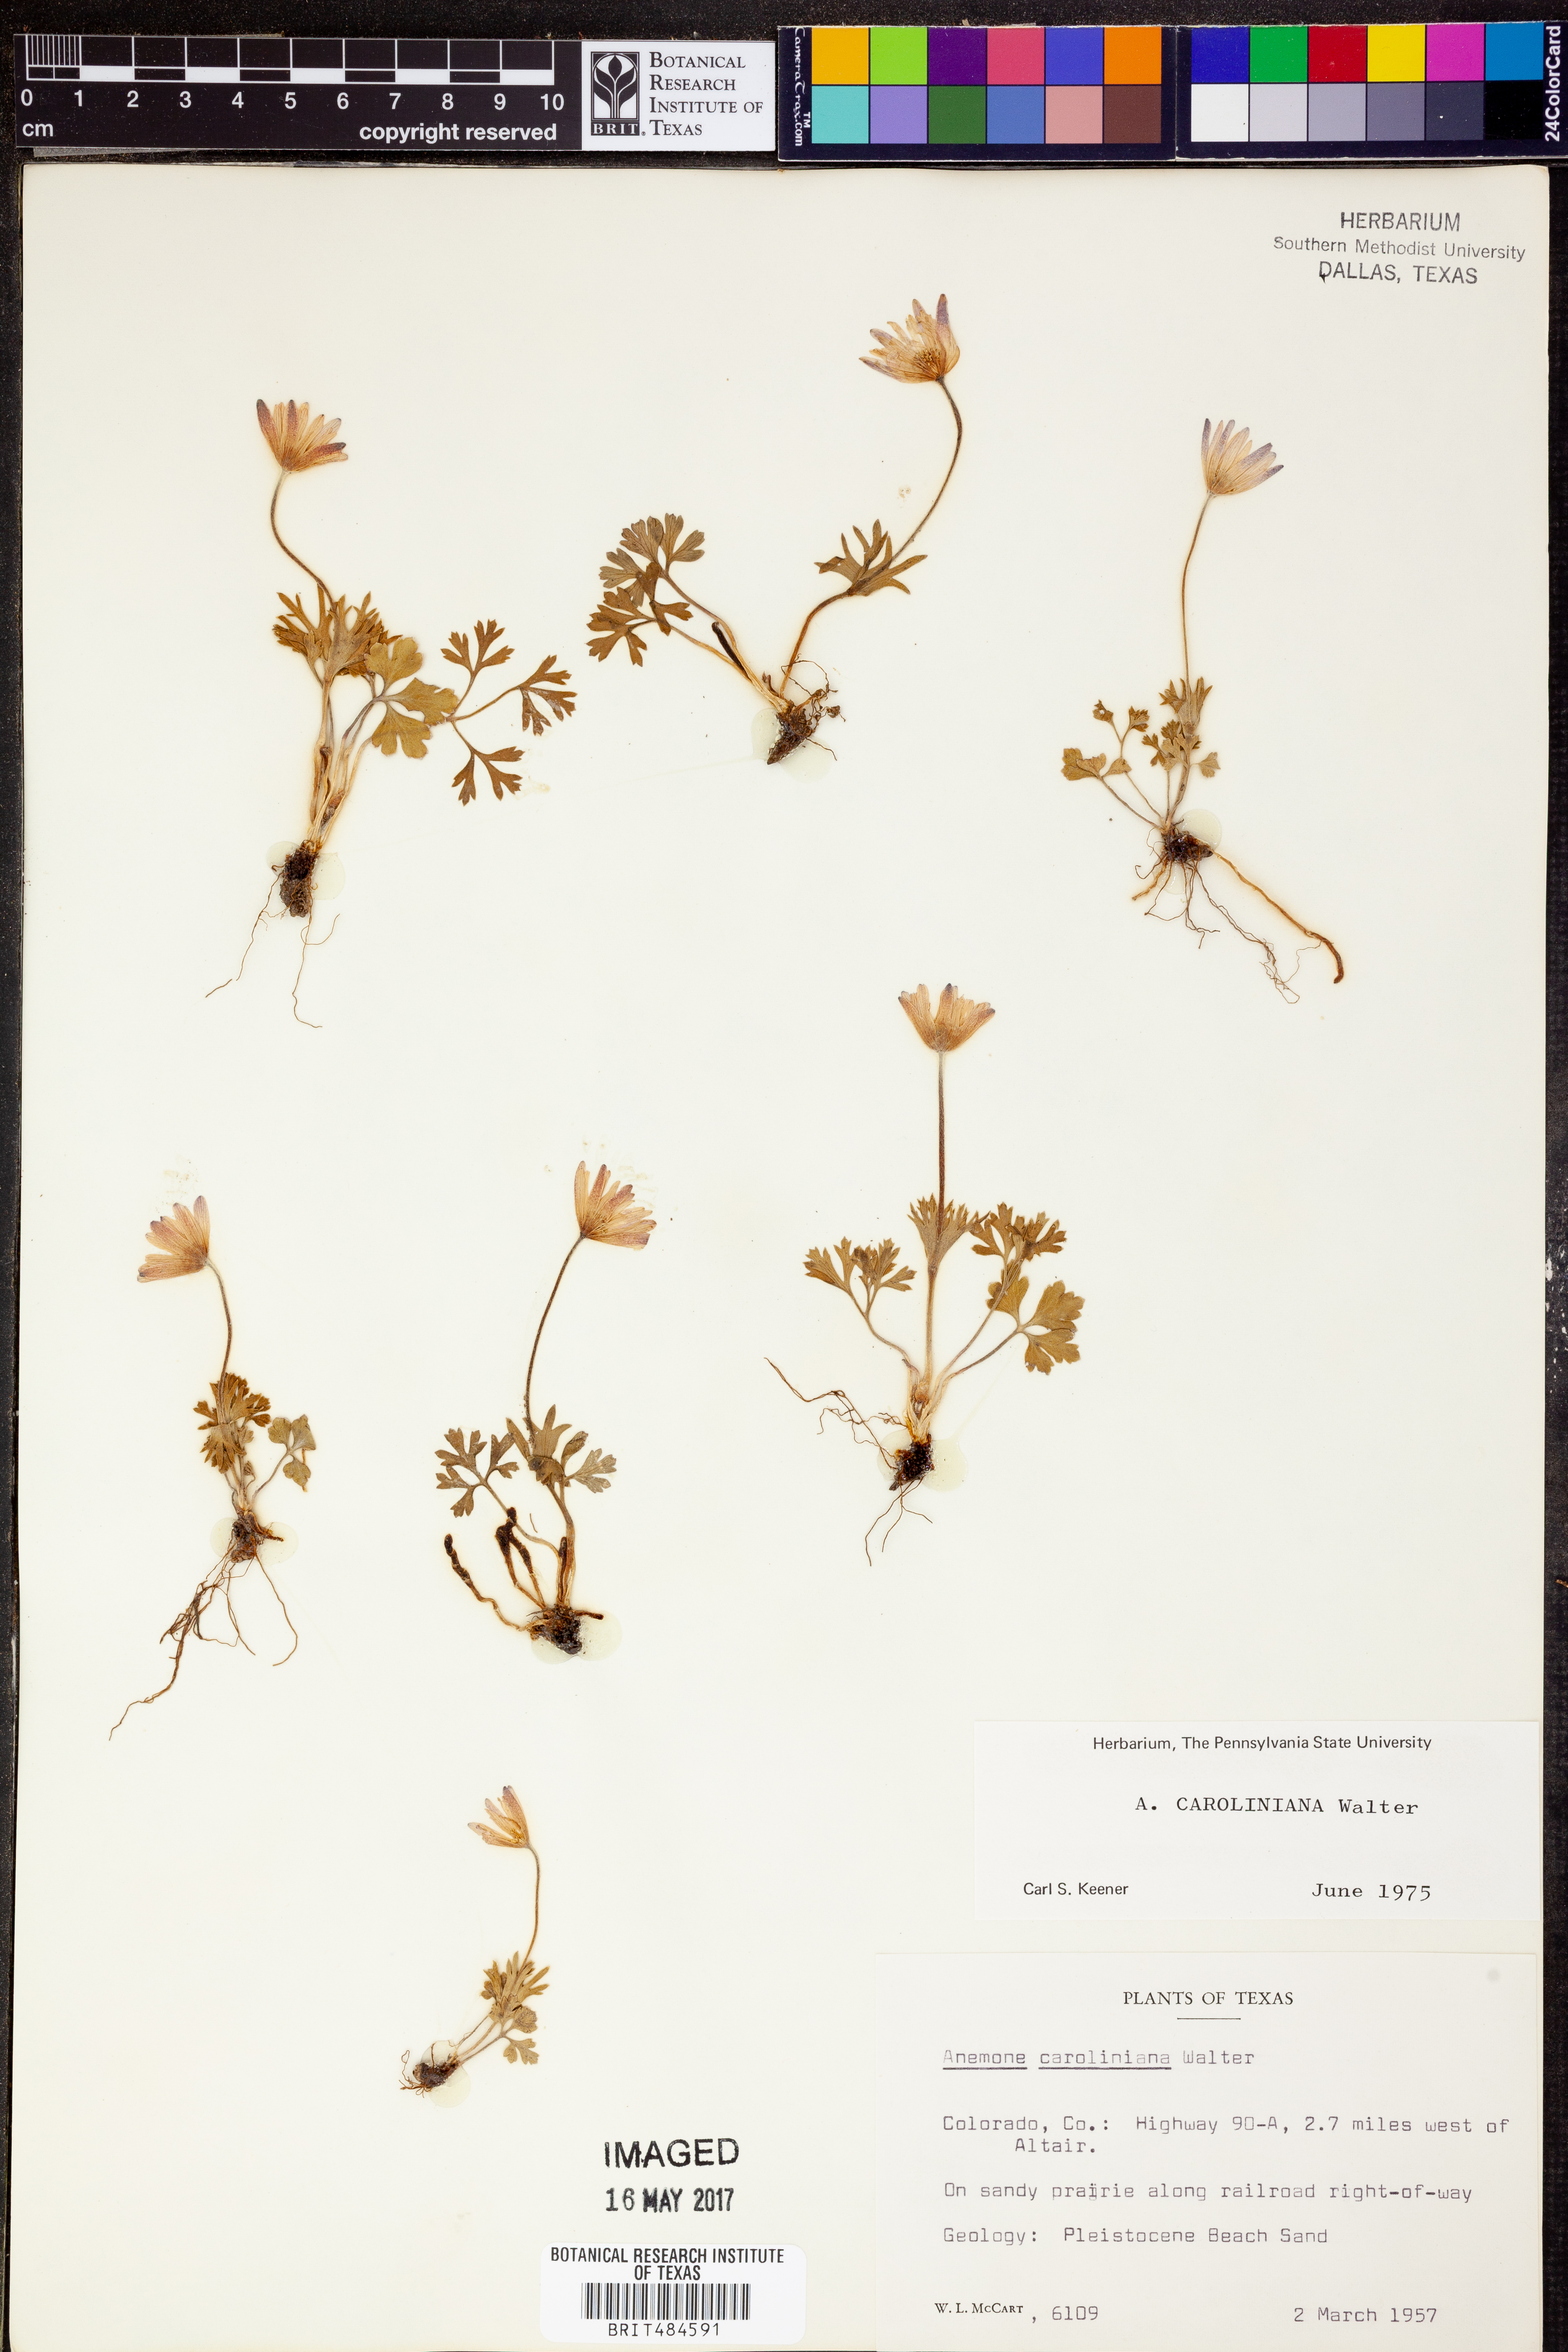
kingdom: Plantae
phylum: Tracheophyta
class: Magnoliopsida
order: Ranunculales
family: Ranunculaceae
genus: Anemone
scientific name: Anemone caroliniana
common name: Carolina anemone
